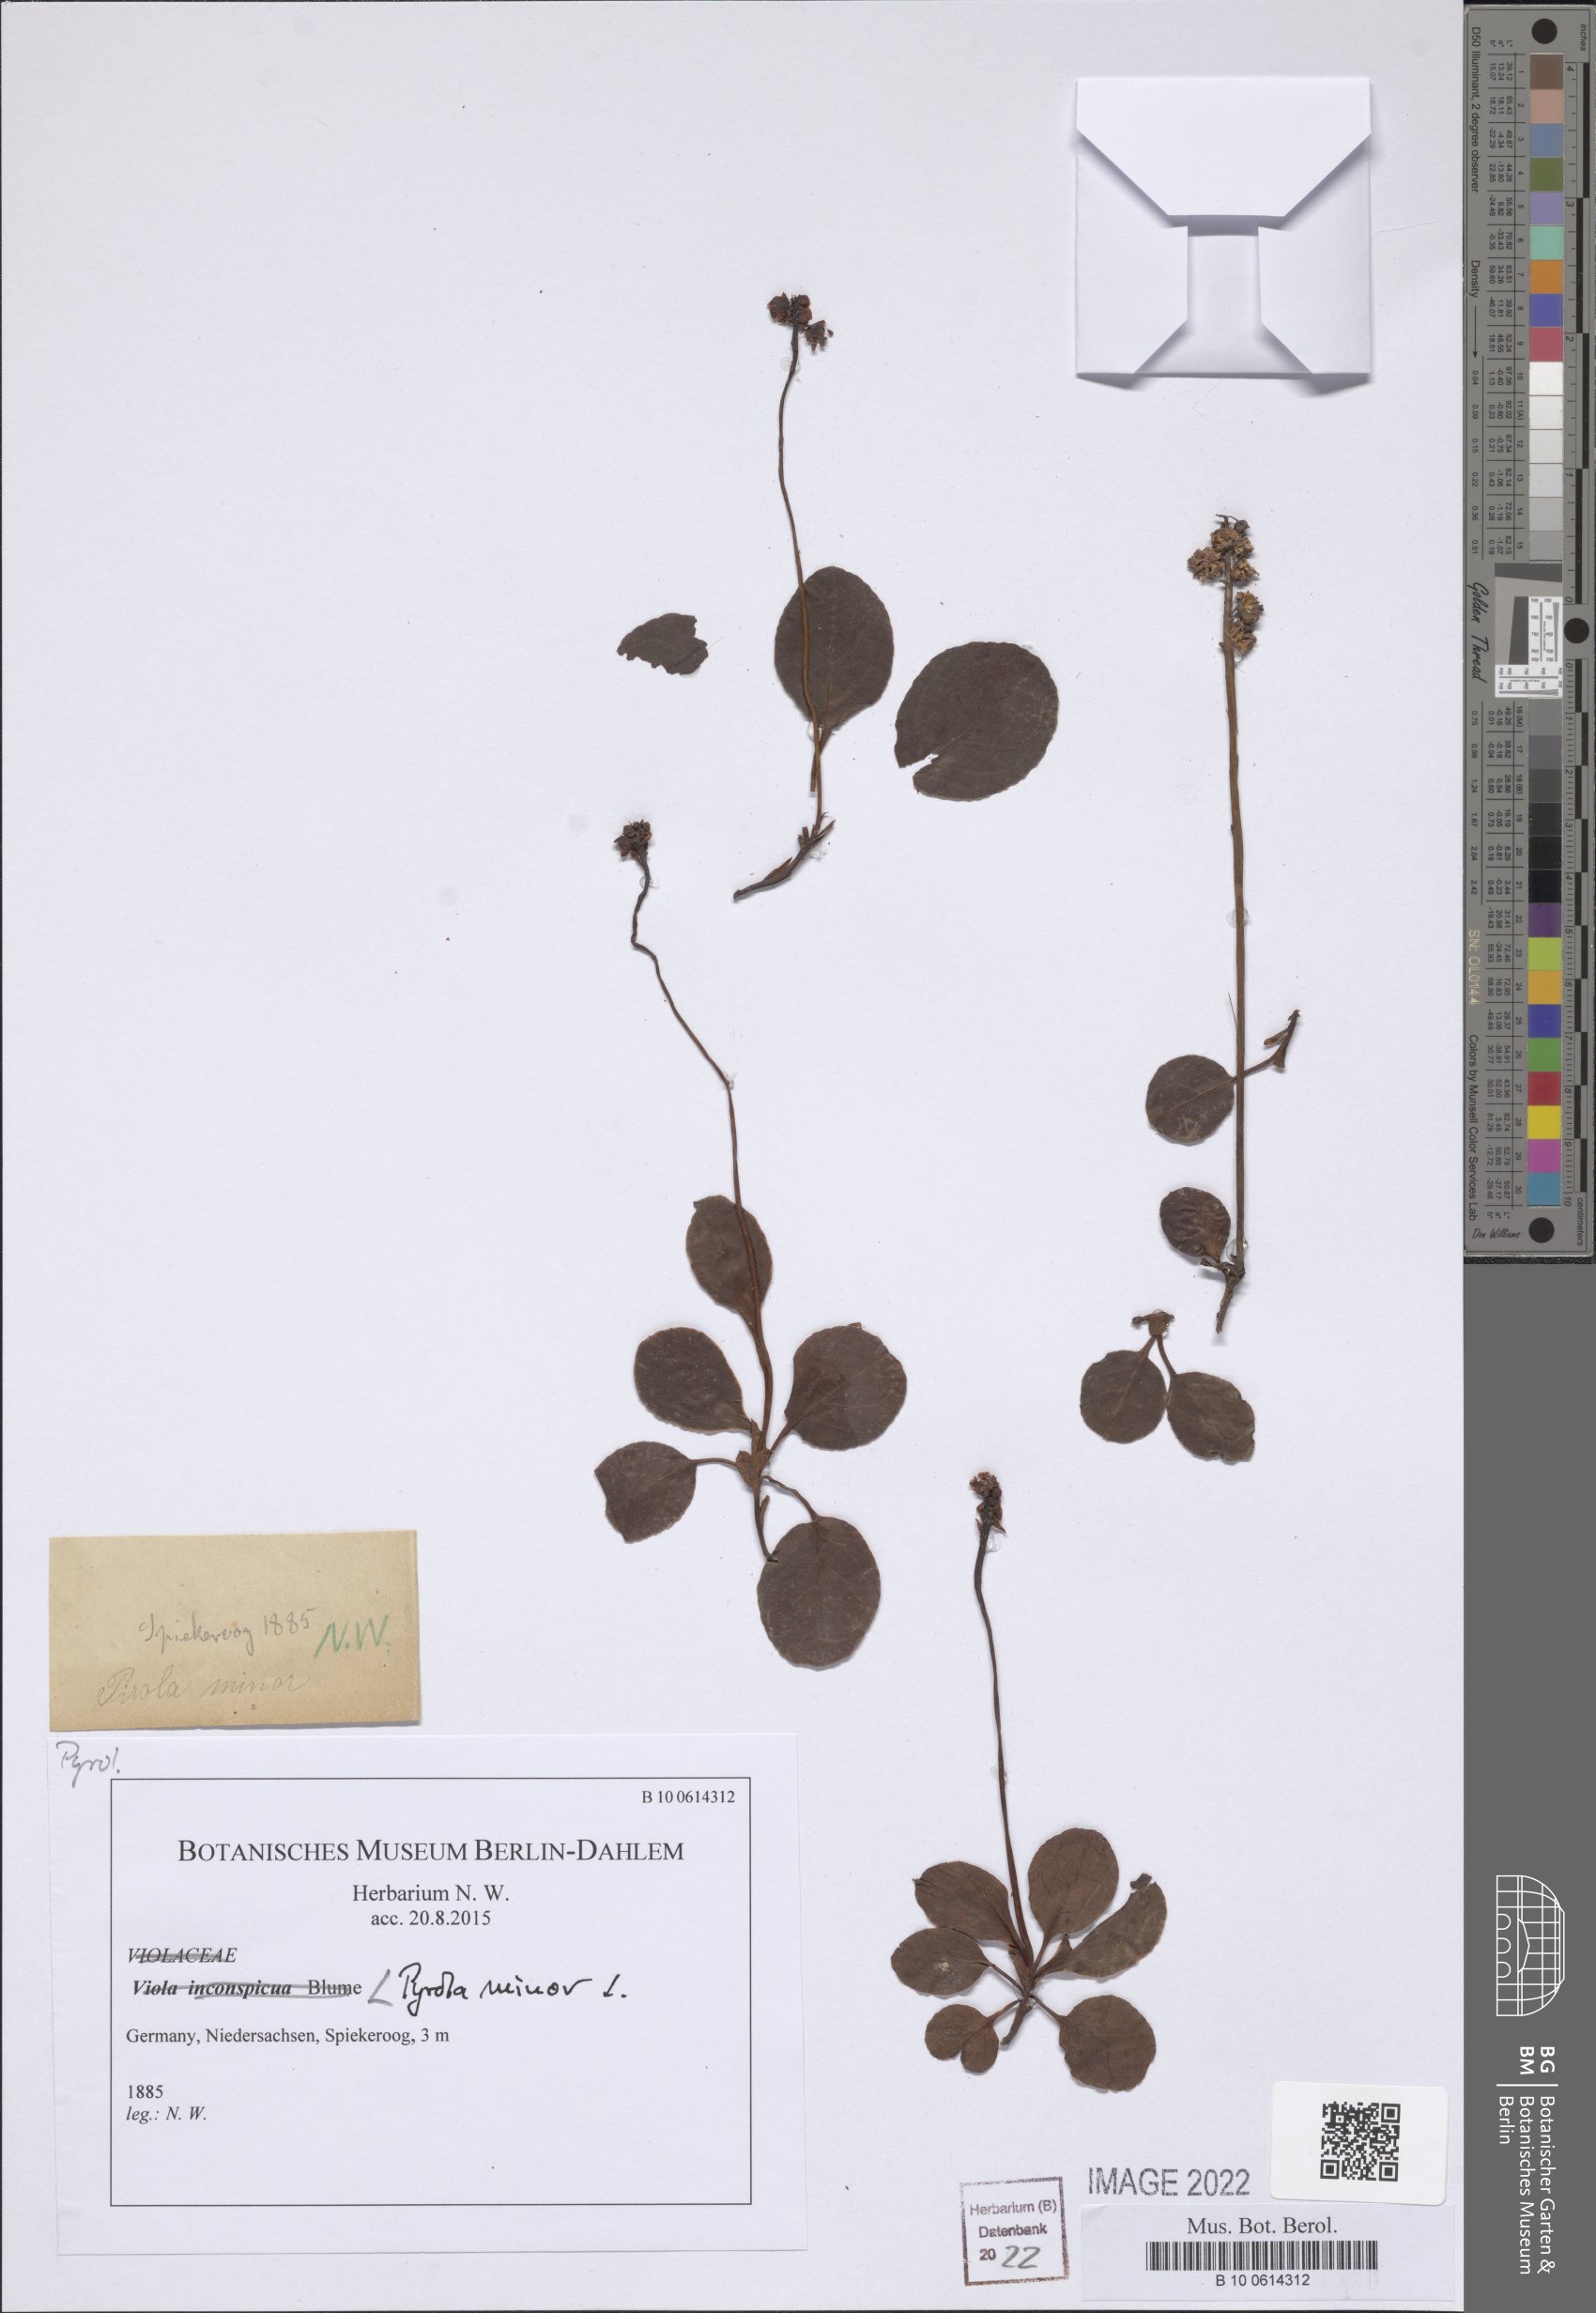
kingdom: Plantae
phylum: Tracheophyta
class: Magnoliopsida
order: Ericales
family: Ericaceae
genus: Pyrola
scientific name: Pyrola minor
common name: Common wintergreen
